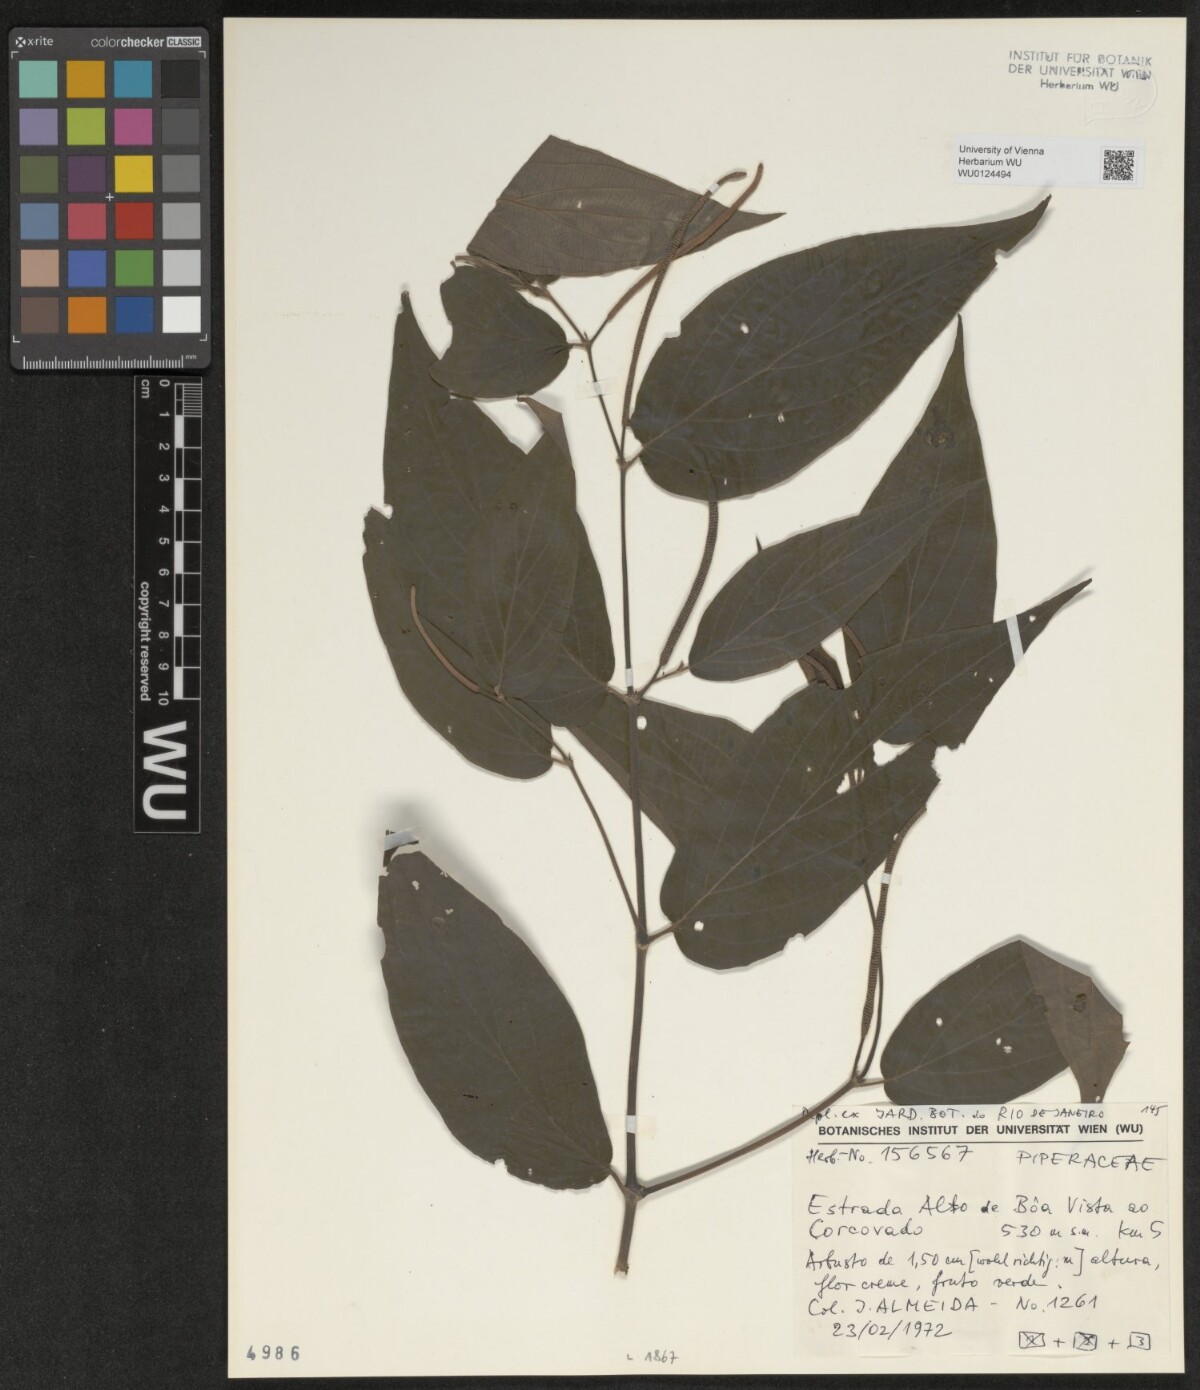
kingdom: Plantae
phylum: Tracheophyta
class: Magnoliopsida
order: Piperales
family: Piperaceae
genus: Peperomia
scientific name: Peperomia
